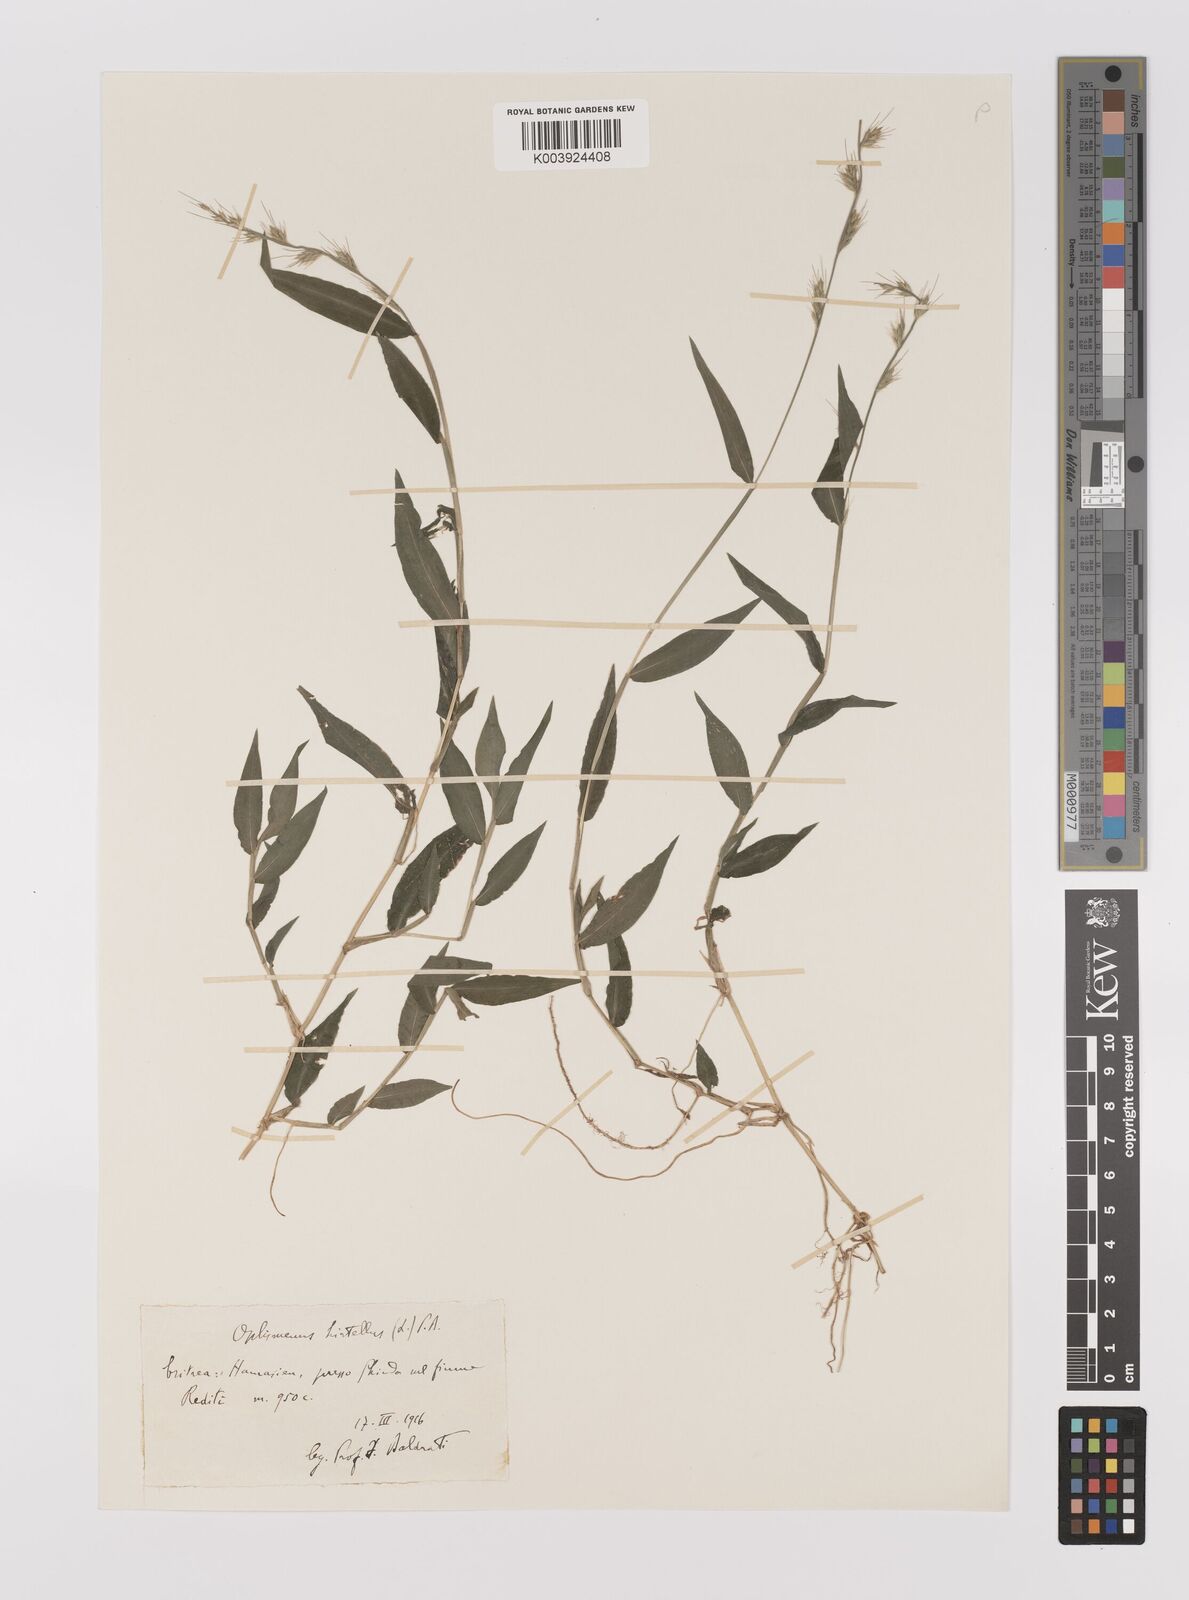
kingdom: Plantae
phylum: Tracheophyta
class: Liliopsida
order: Poales
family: Poaceae
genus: Oplismenus
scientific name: Oplismenus hirtellus
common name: Basketgrass
